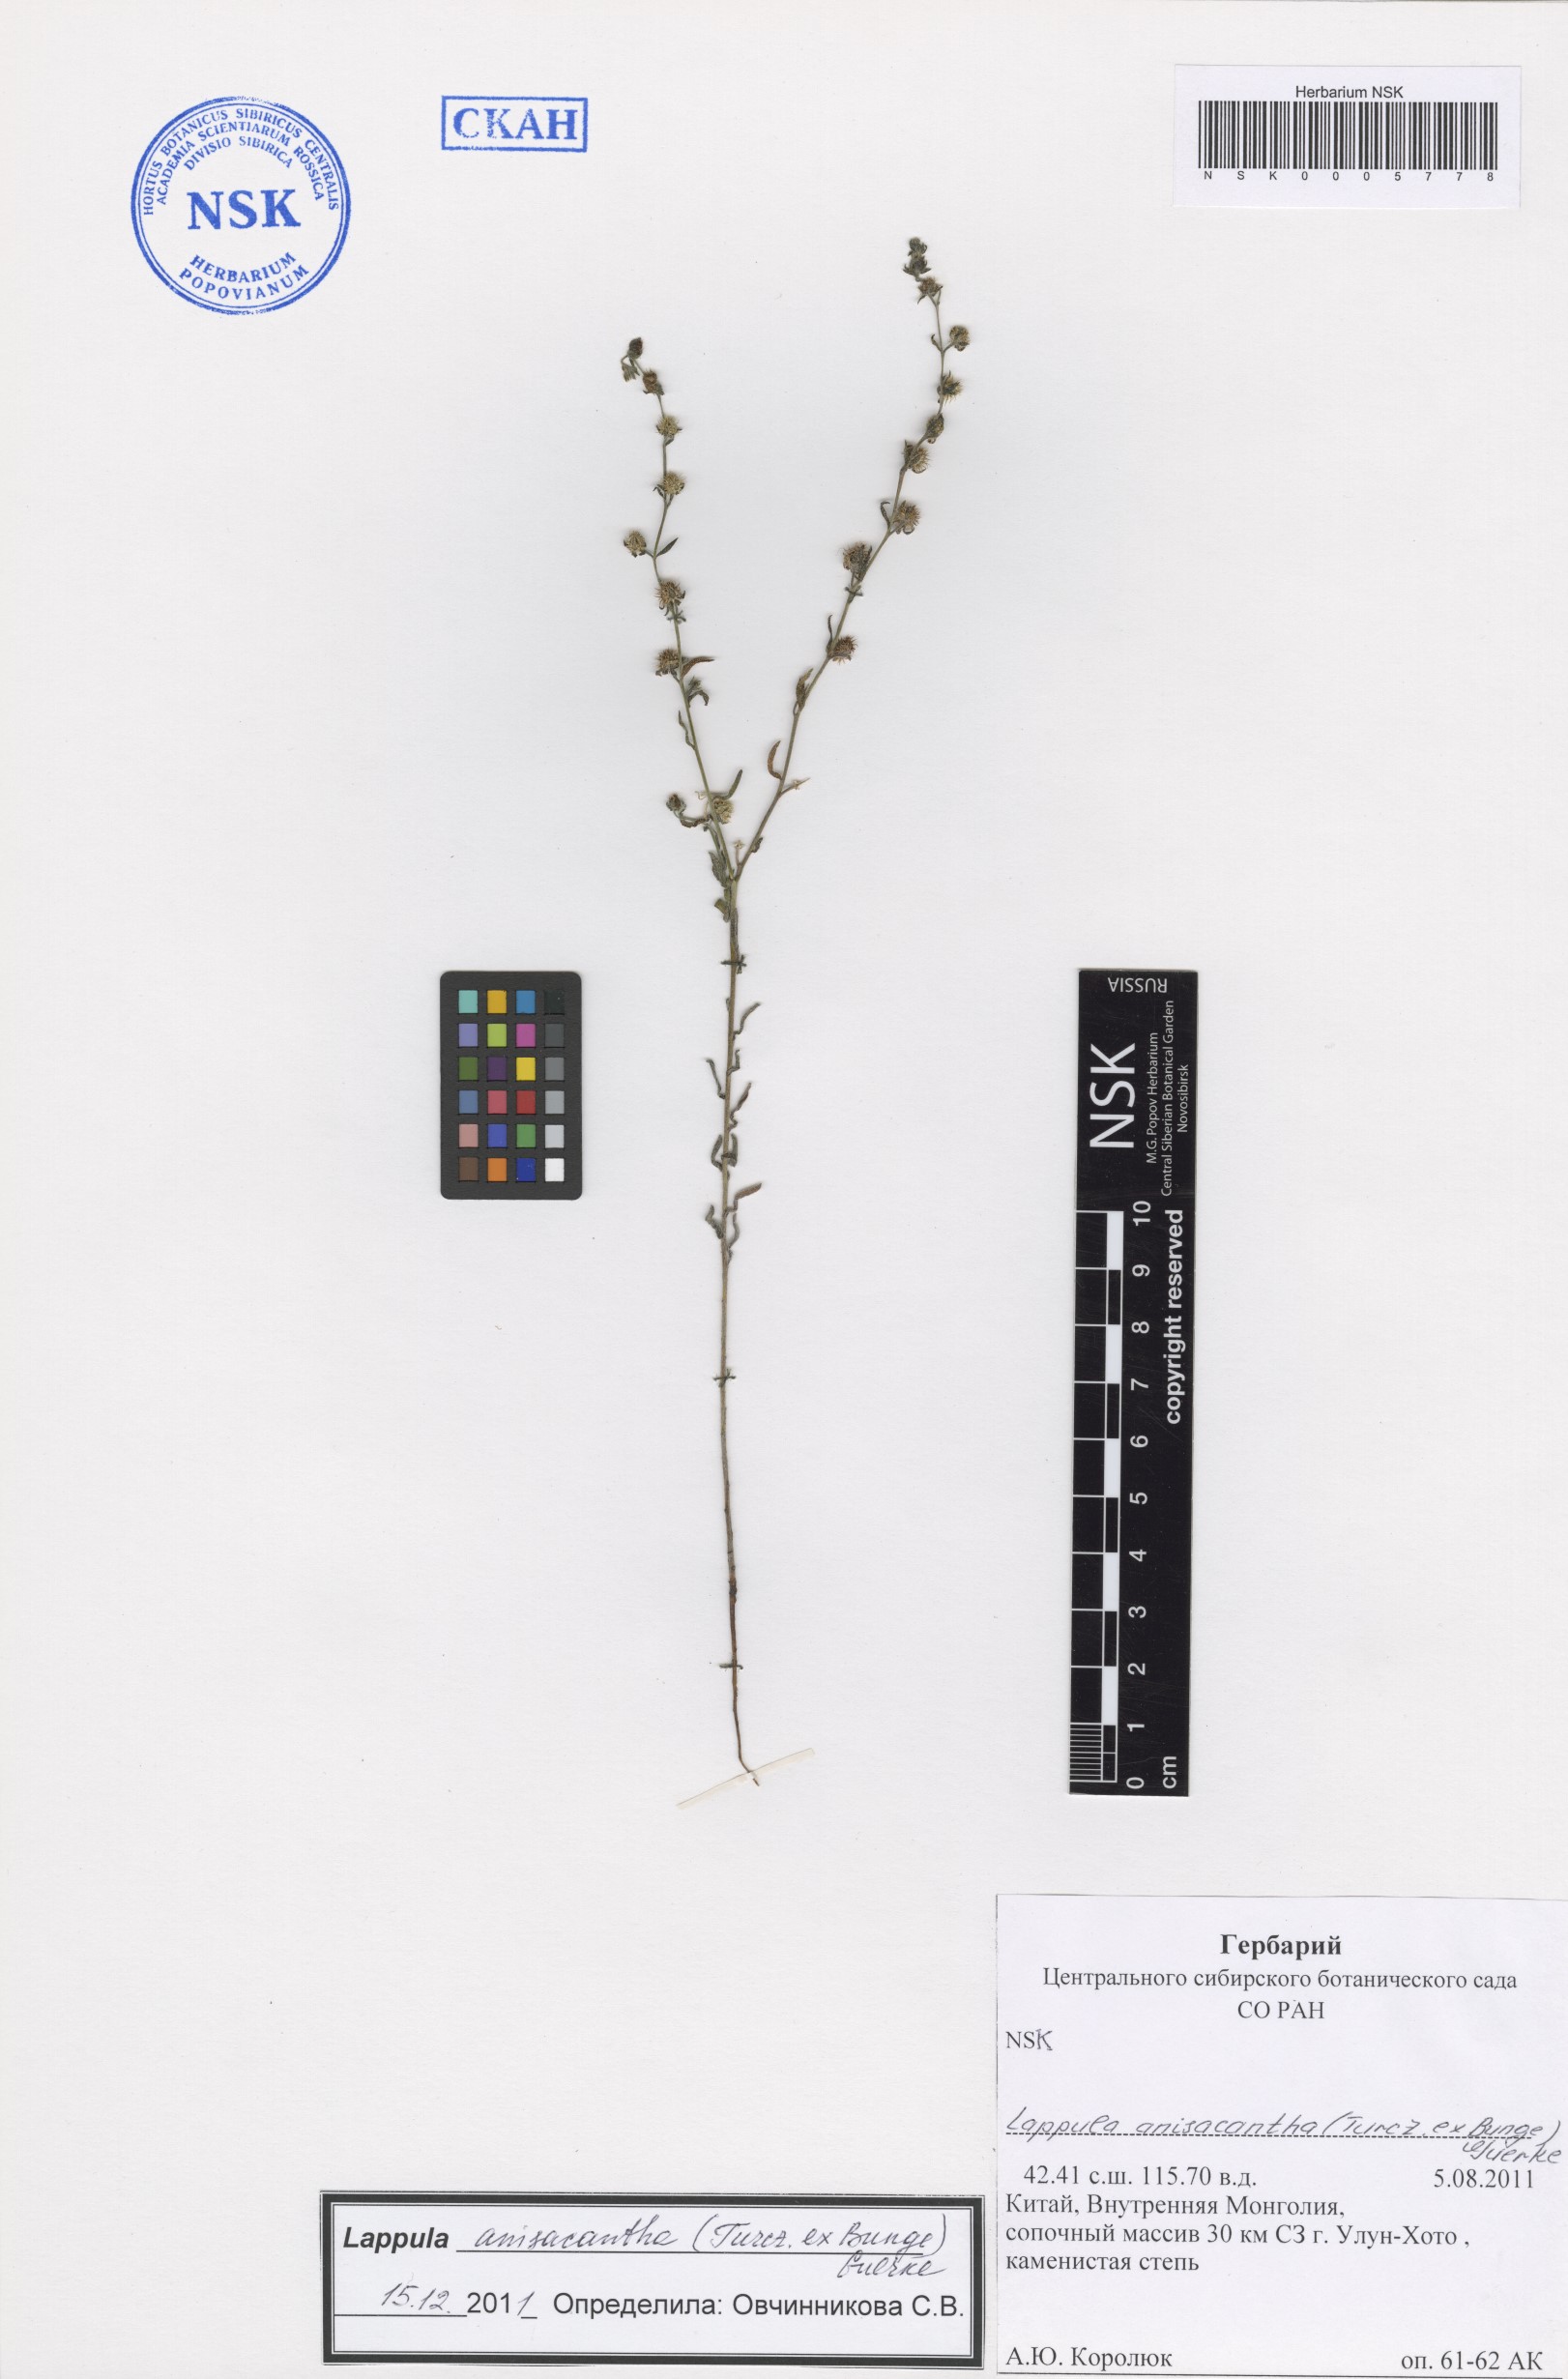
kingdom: Plantae
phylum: Tracheophyta
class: Magnoliopsida
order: Boraginales
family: Boraginaceae
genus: Lappula
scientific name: Lappula intermedia
